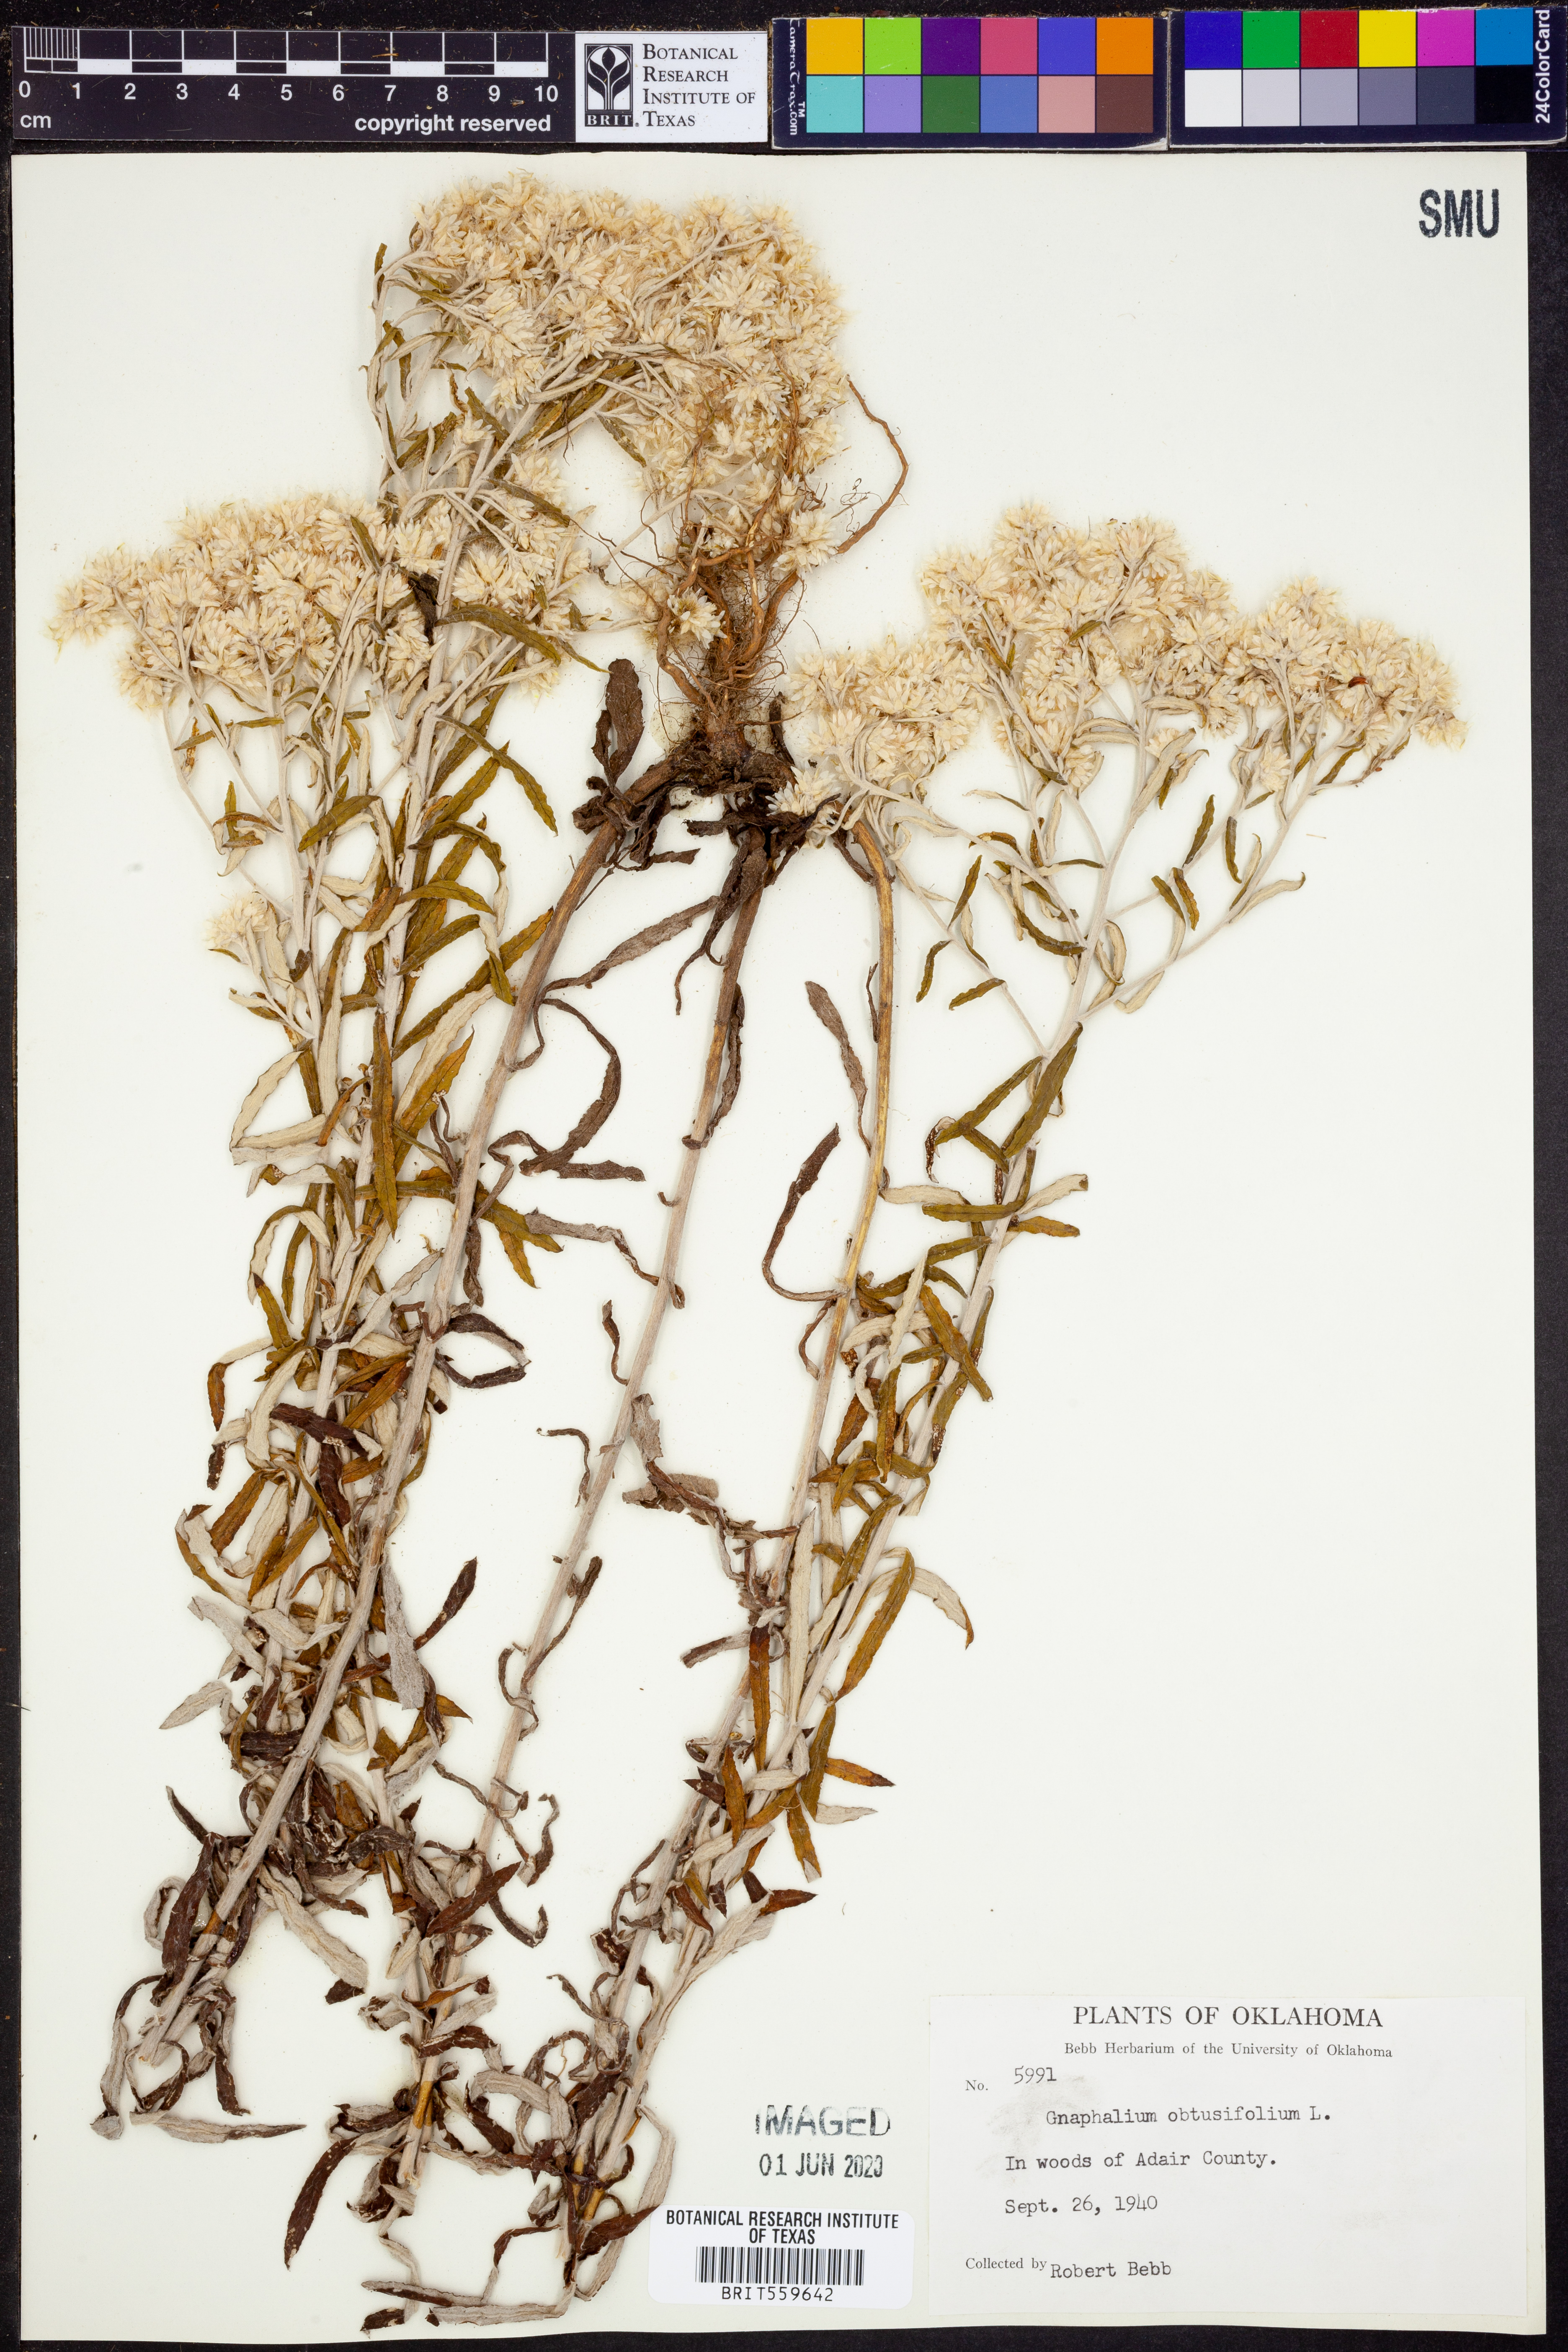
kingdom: Plantae
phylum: Tracheophyta
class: Magnoliopsida
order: Asterales
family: Asteraceae
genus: Pseudognaphalium
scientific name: Pseudognaphalium obtusifolium
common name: Eastern rabbit-tobacco
